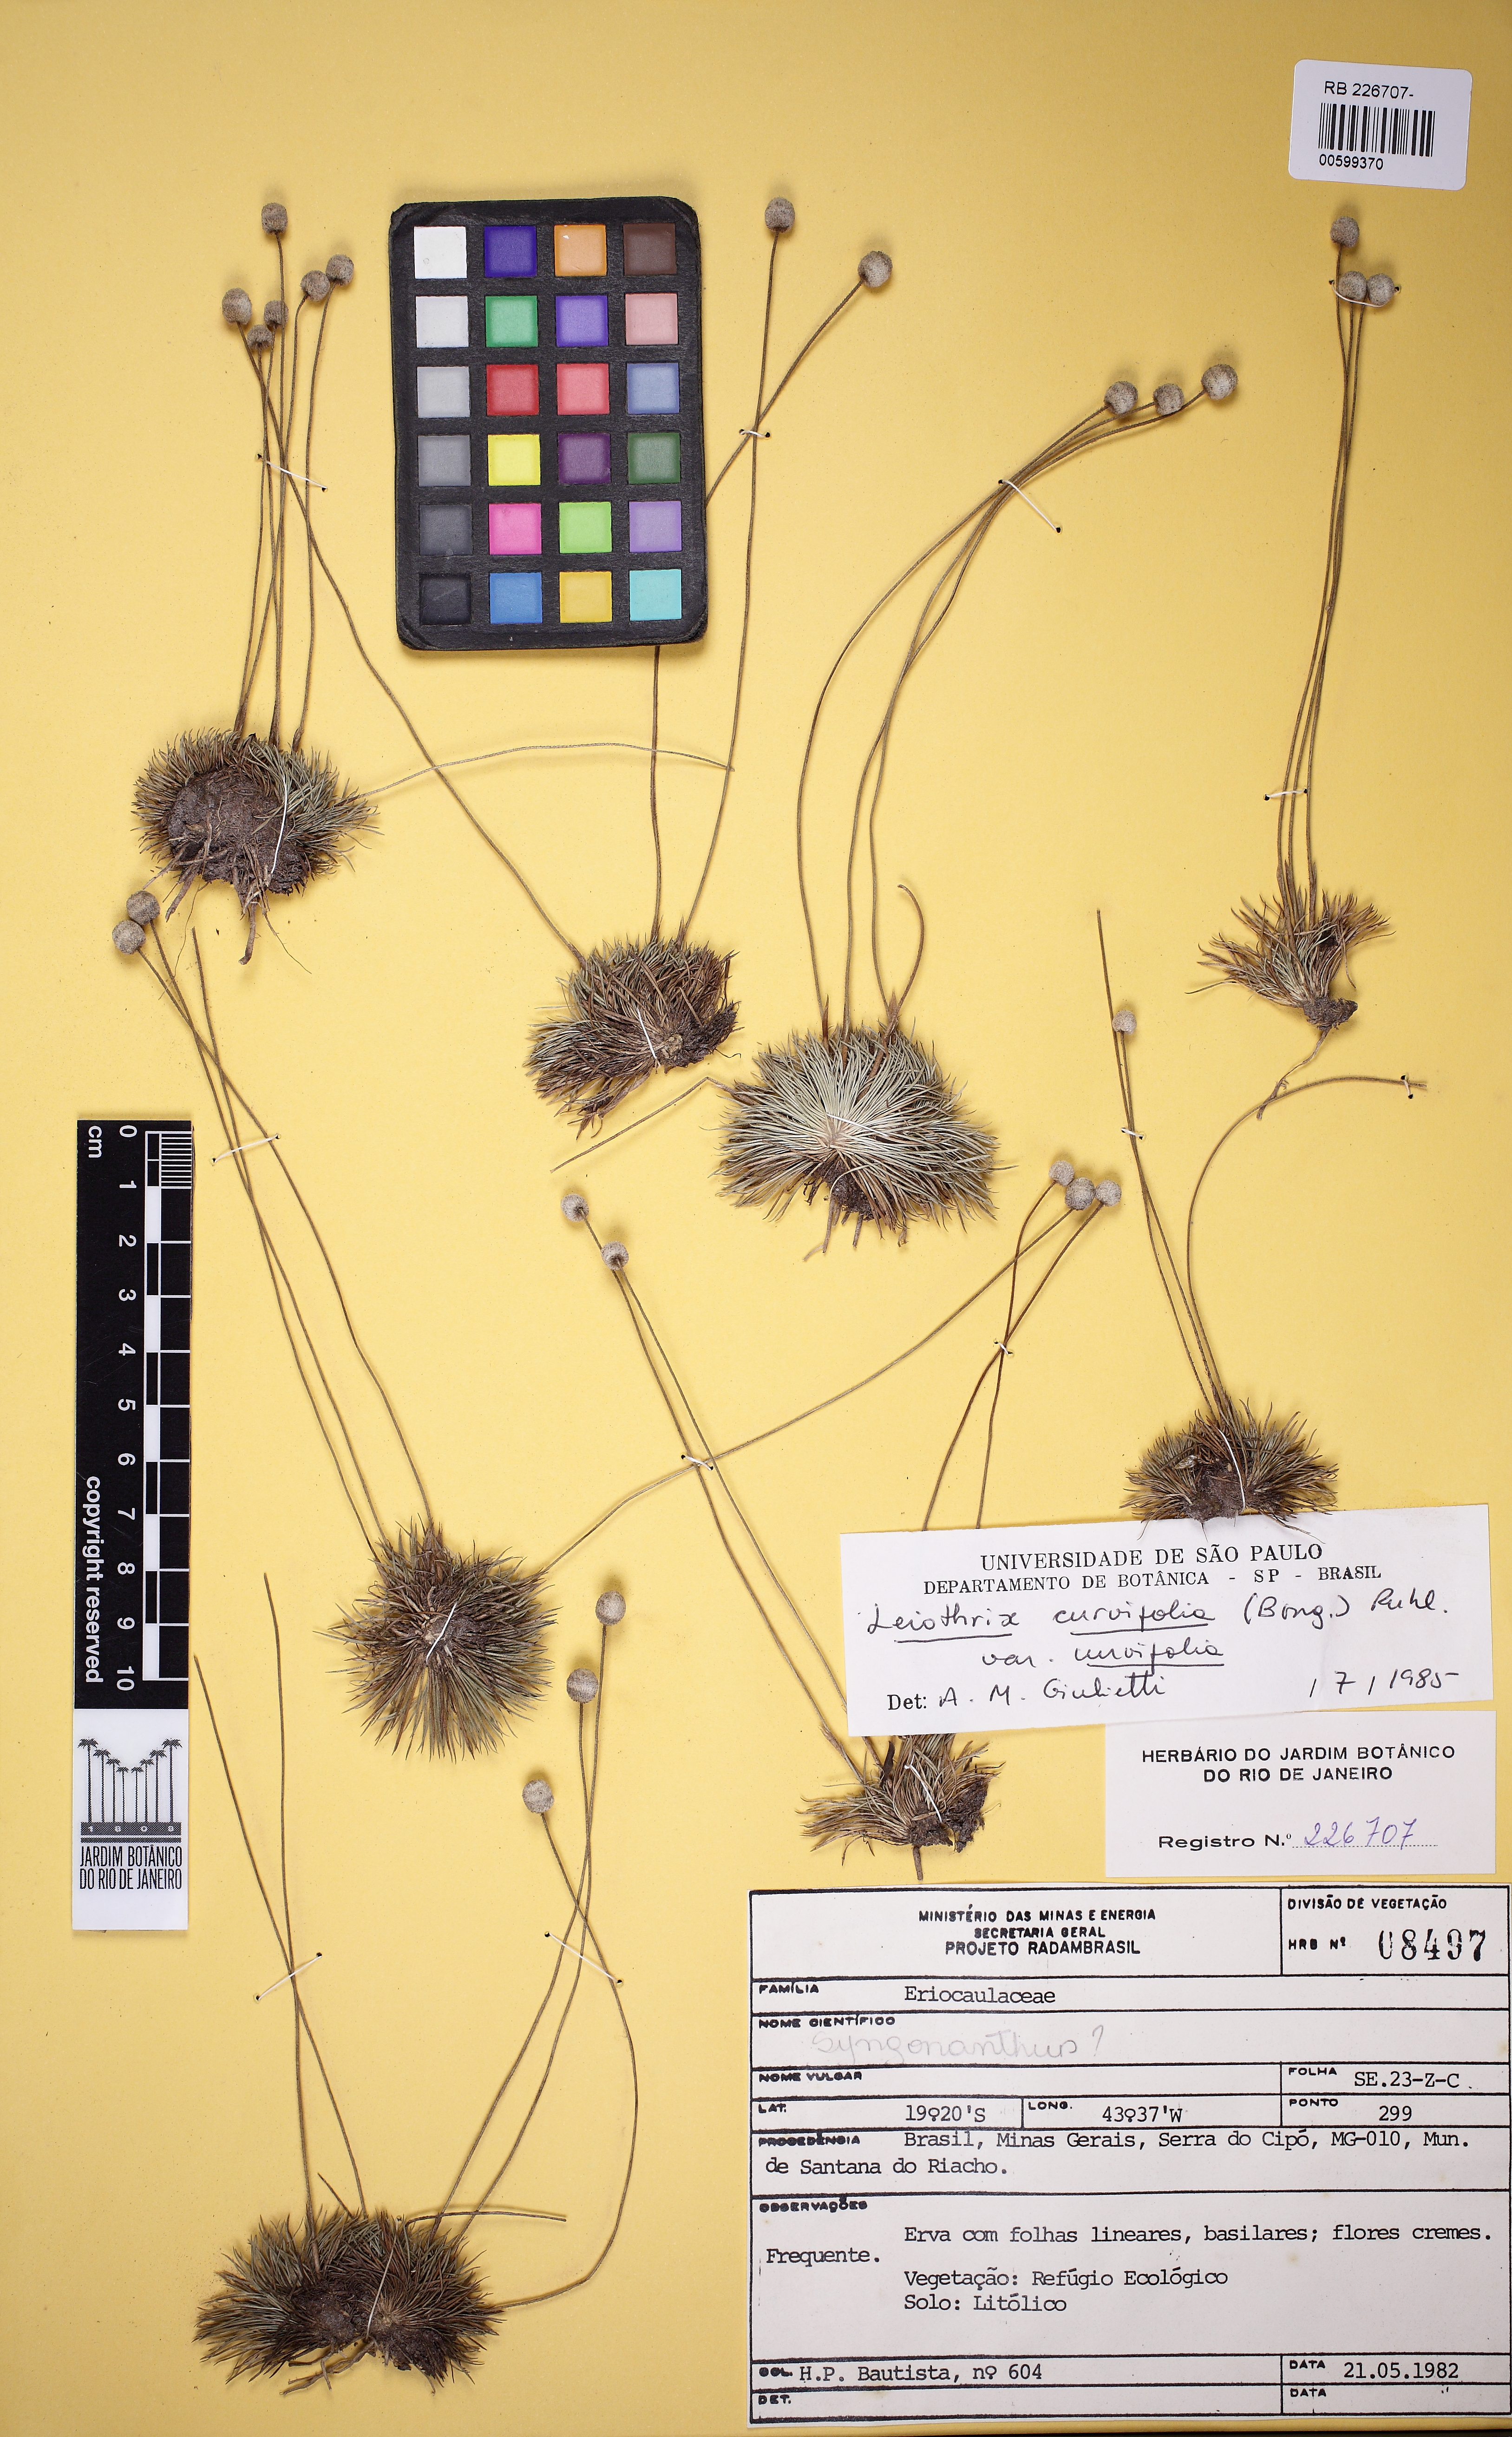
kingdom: Plantae
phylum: Tracheophyta
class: Liliopsida
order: Poales
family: Eriocaulaceae
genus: Leiothrix
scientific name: Leiothrix curvifolia
